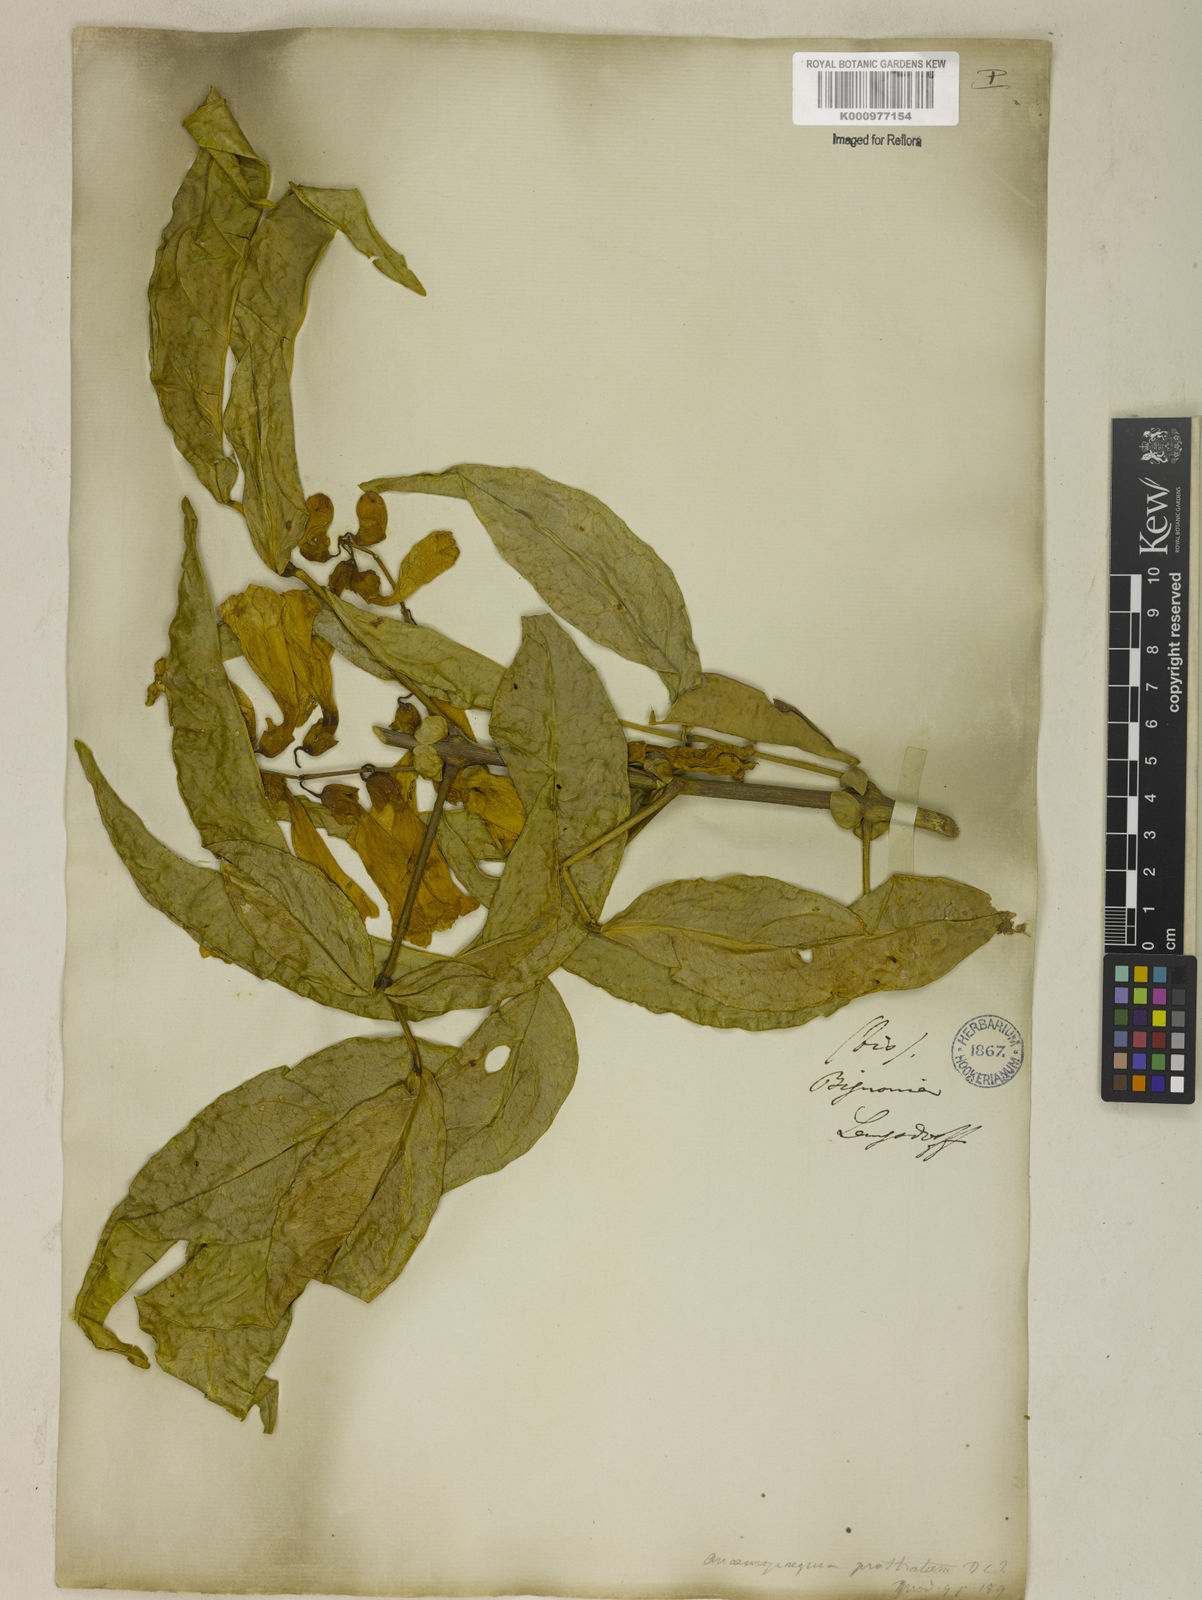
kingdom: Plantae
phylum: Tracheophyta
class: Magnoliopsida
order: Lamiales
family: Bignoniaceae
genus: Anemopaegma
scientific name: Anemopaegma chamberlaynii
